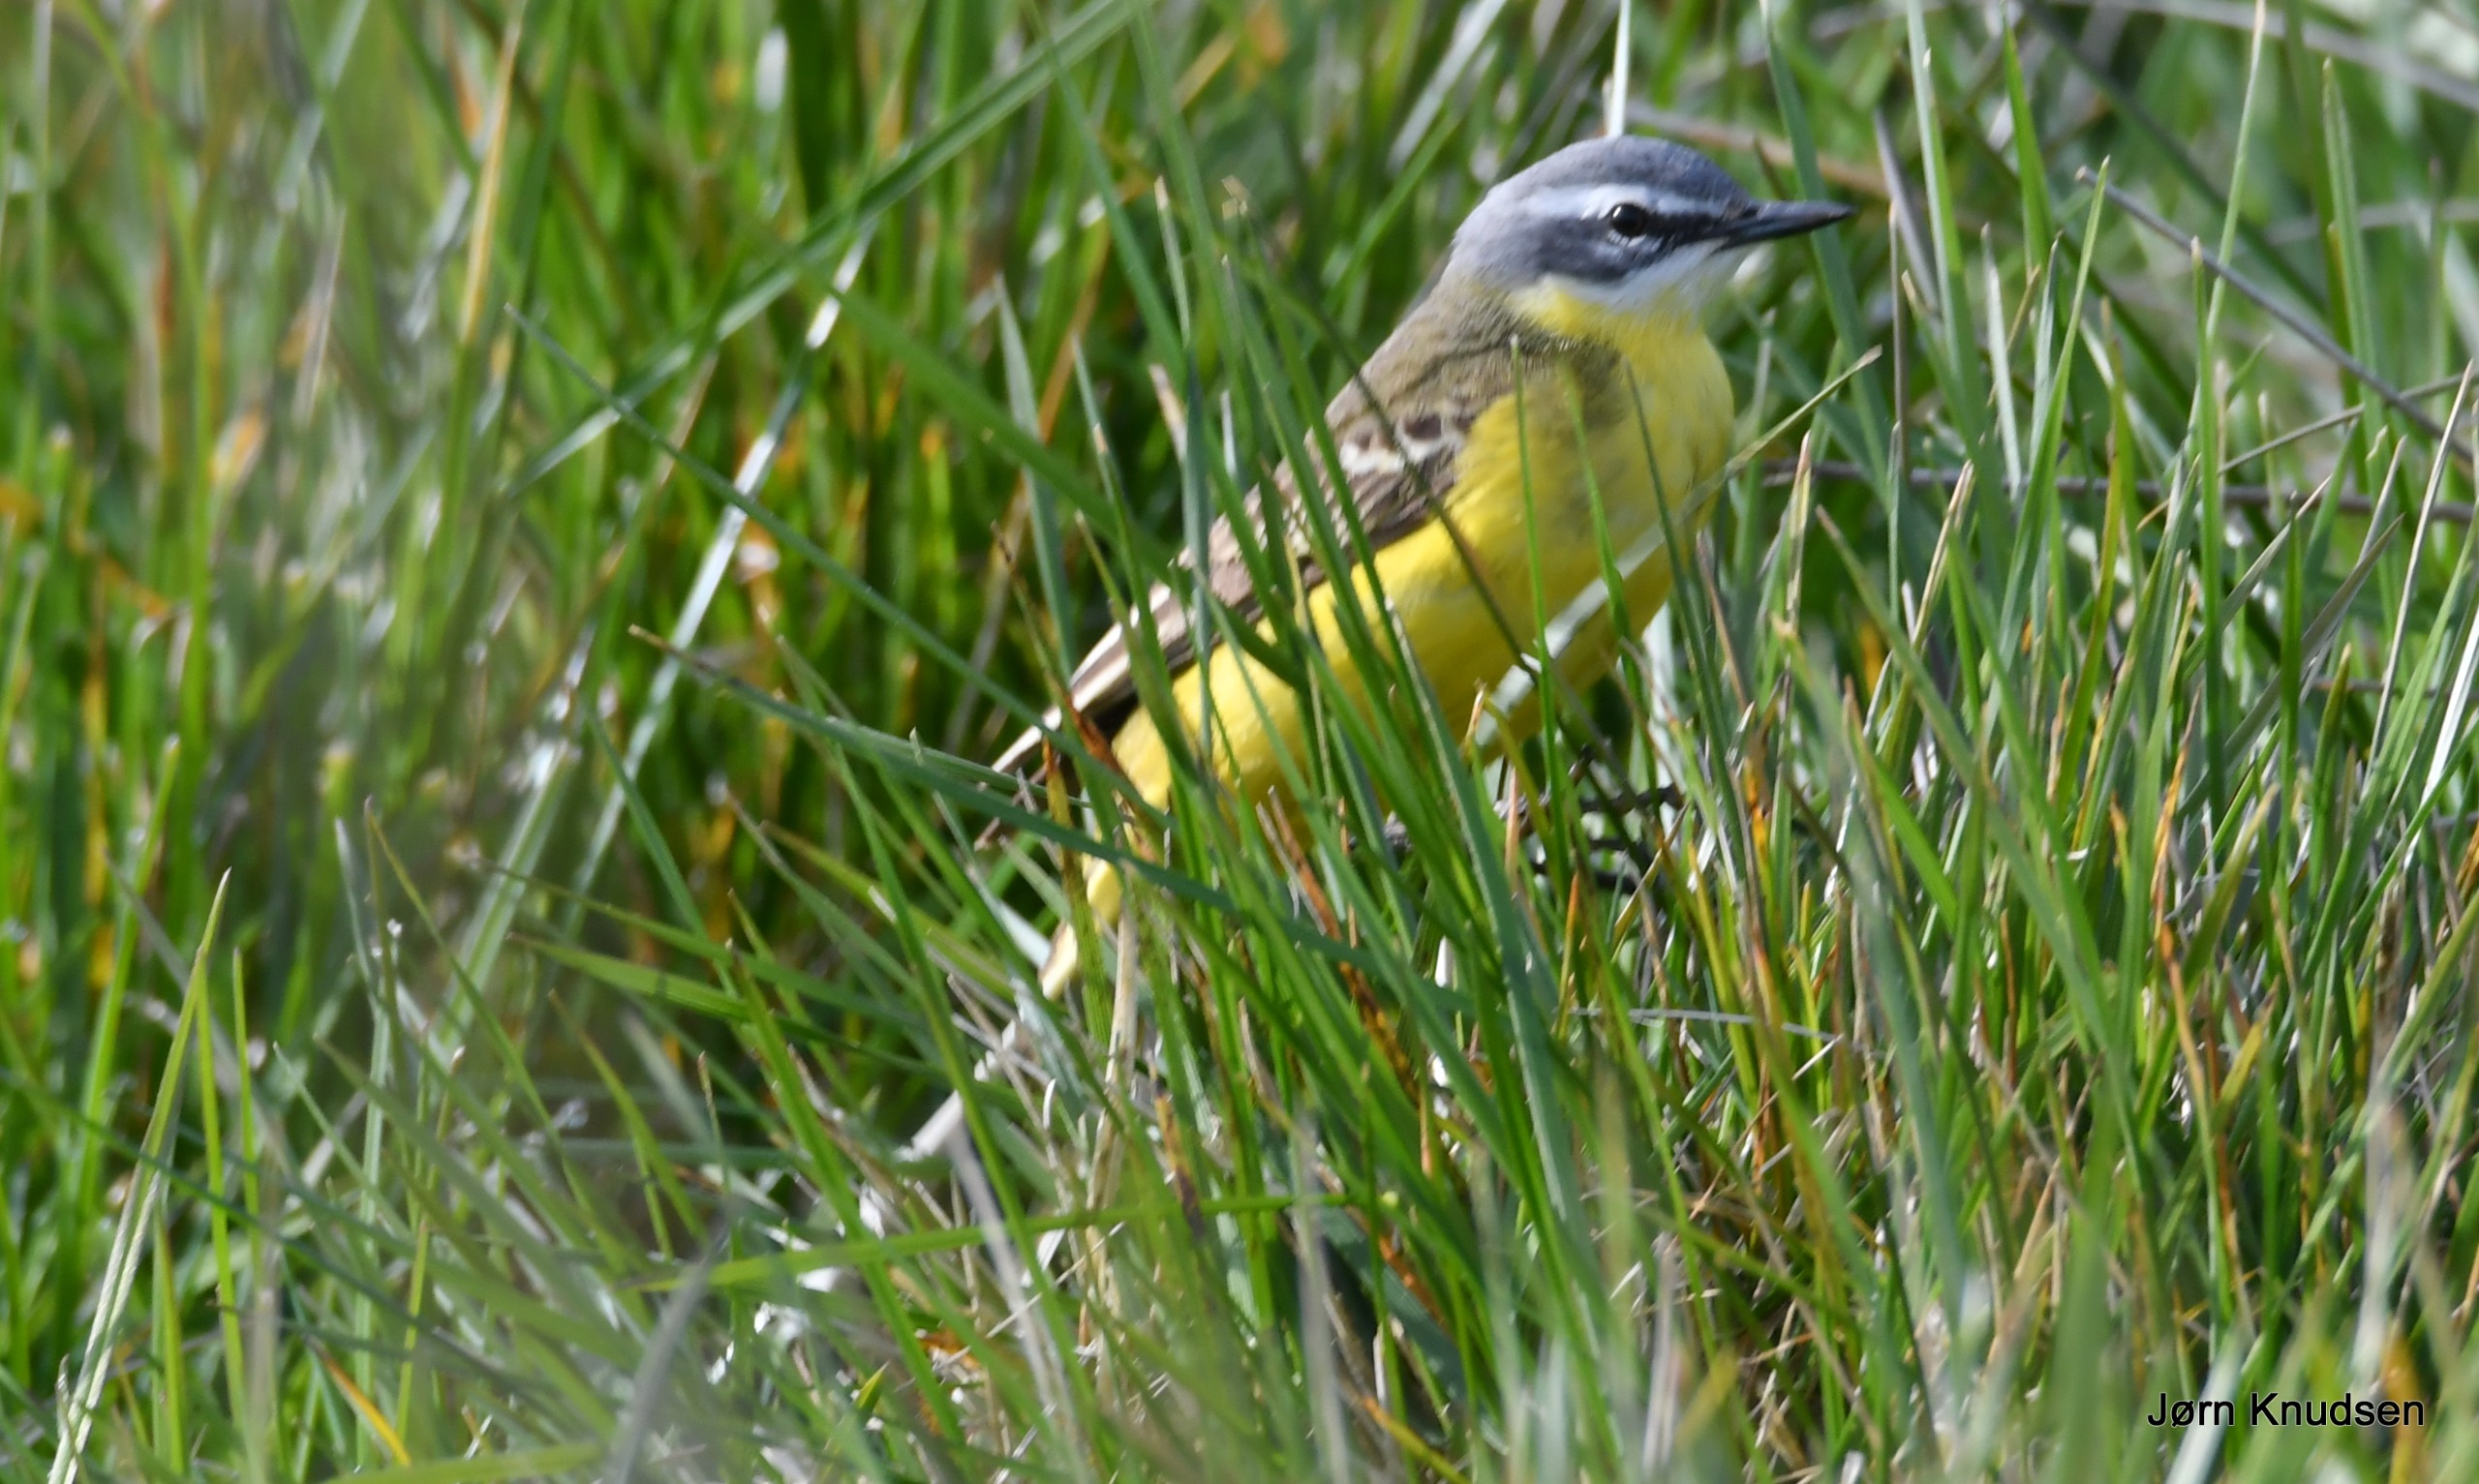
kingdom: Animalia
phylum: Chordata
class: Aves
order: Passeriformes
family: Motacillidae
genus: Motacilla
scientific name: Motacilla flava
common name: Gul vipstjert
